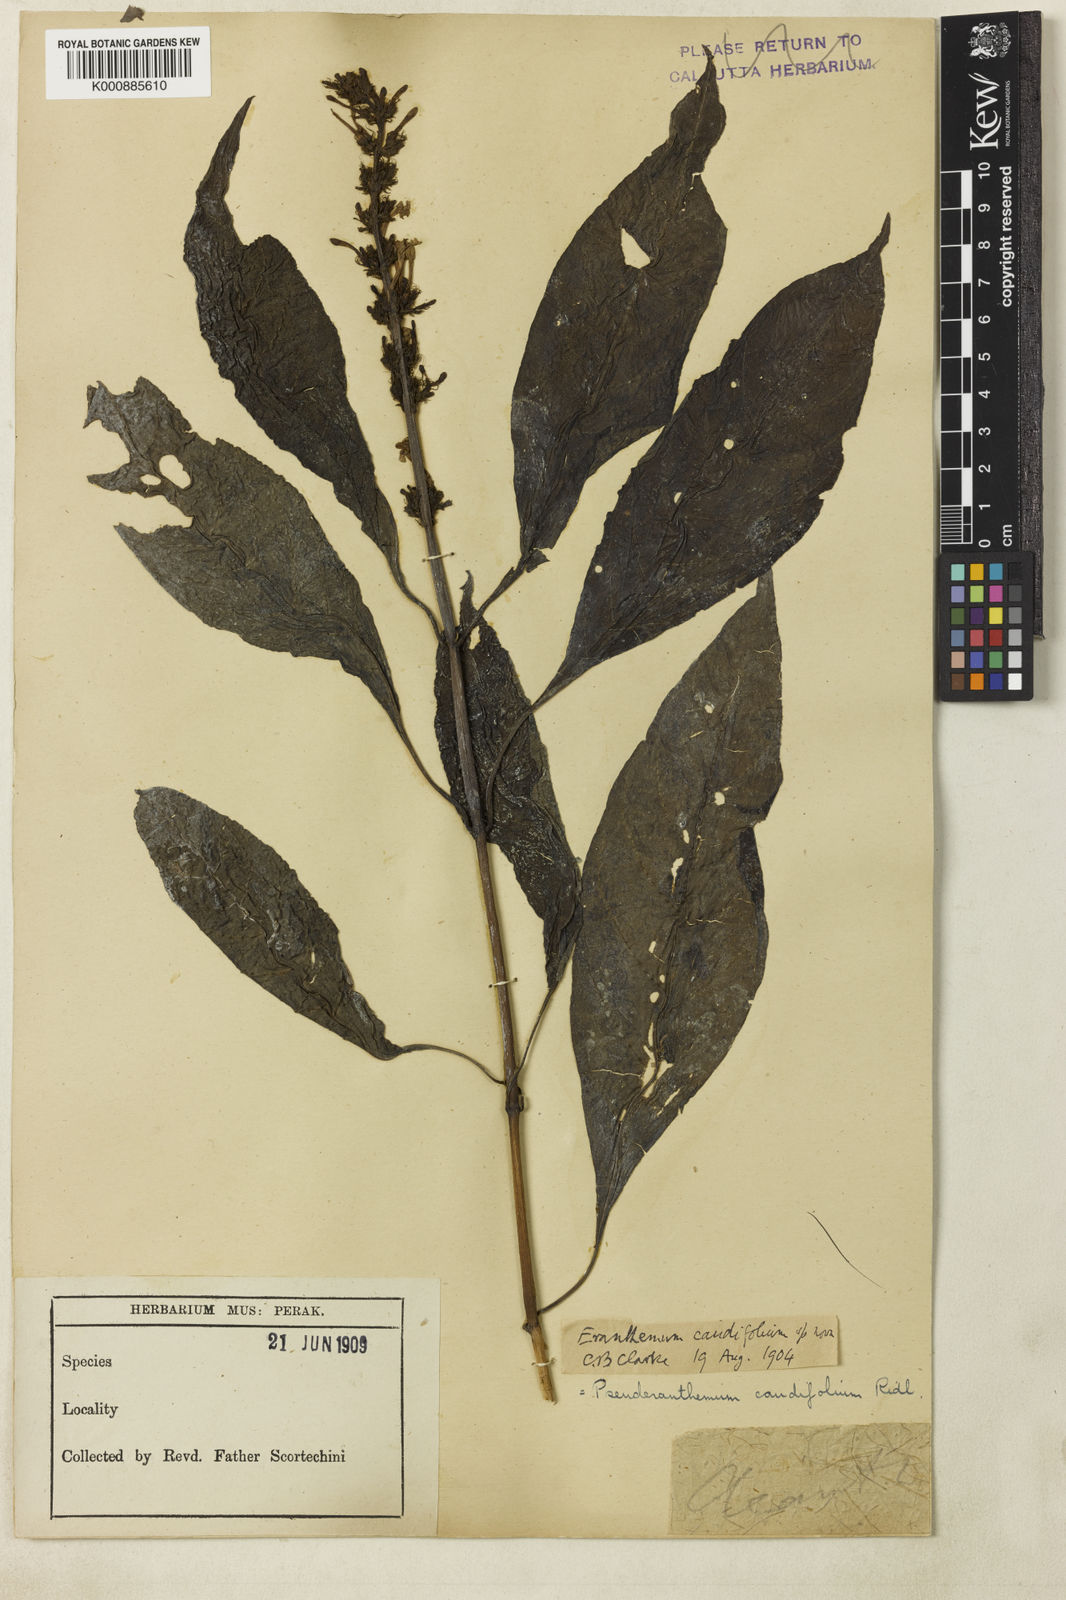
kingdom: Plantae
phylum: Tracheophyta
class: Magnoliopsida
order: Lamiales
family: Acanthaceae
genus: Pseuderanthemum
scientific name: Pseuderanthemum caudifolium
